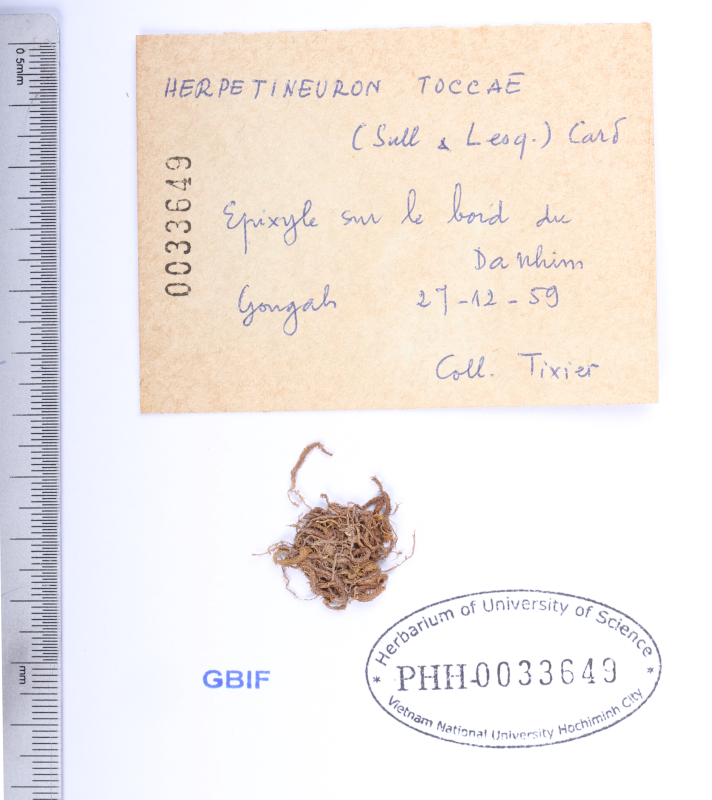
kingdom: Plantae
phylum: Bryophyta
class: Bryopsida
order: Hypnales
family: Thuidiaceae
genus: Herpetineuron
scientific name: Herpetineuron toccoae
